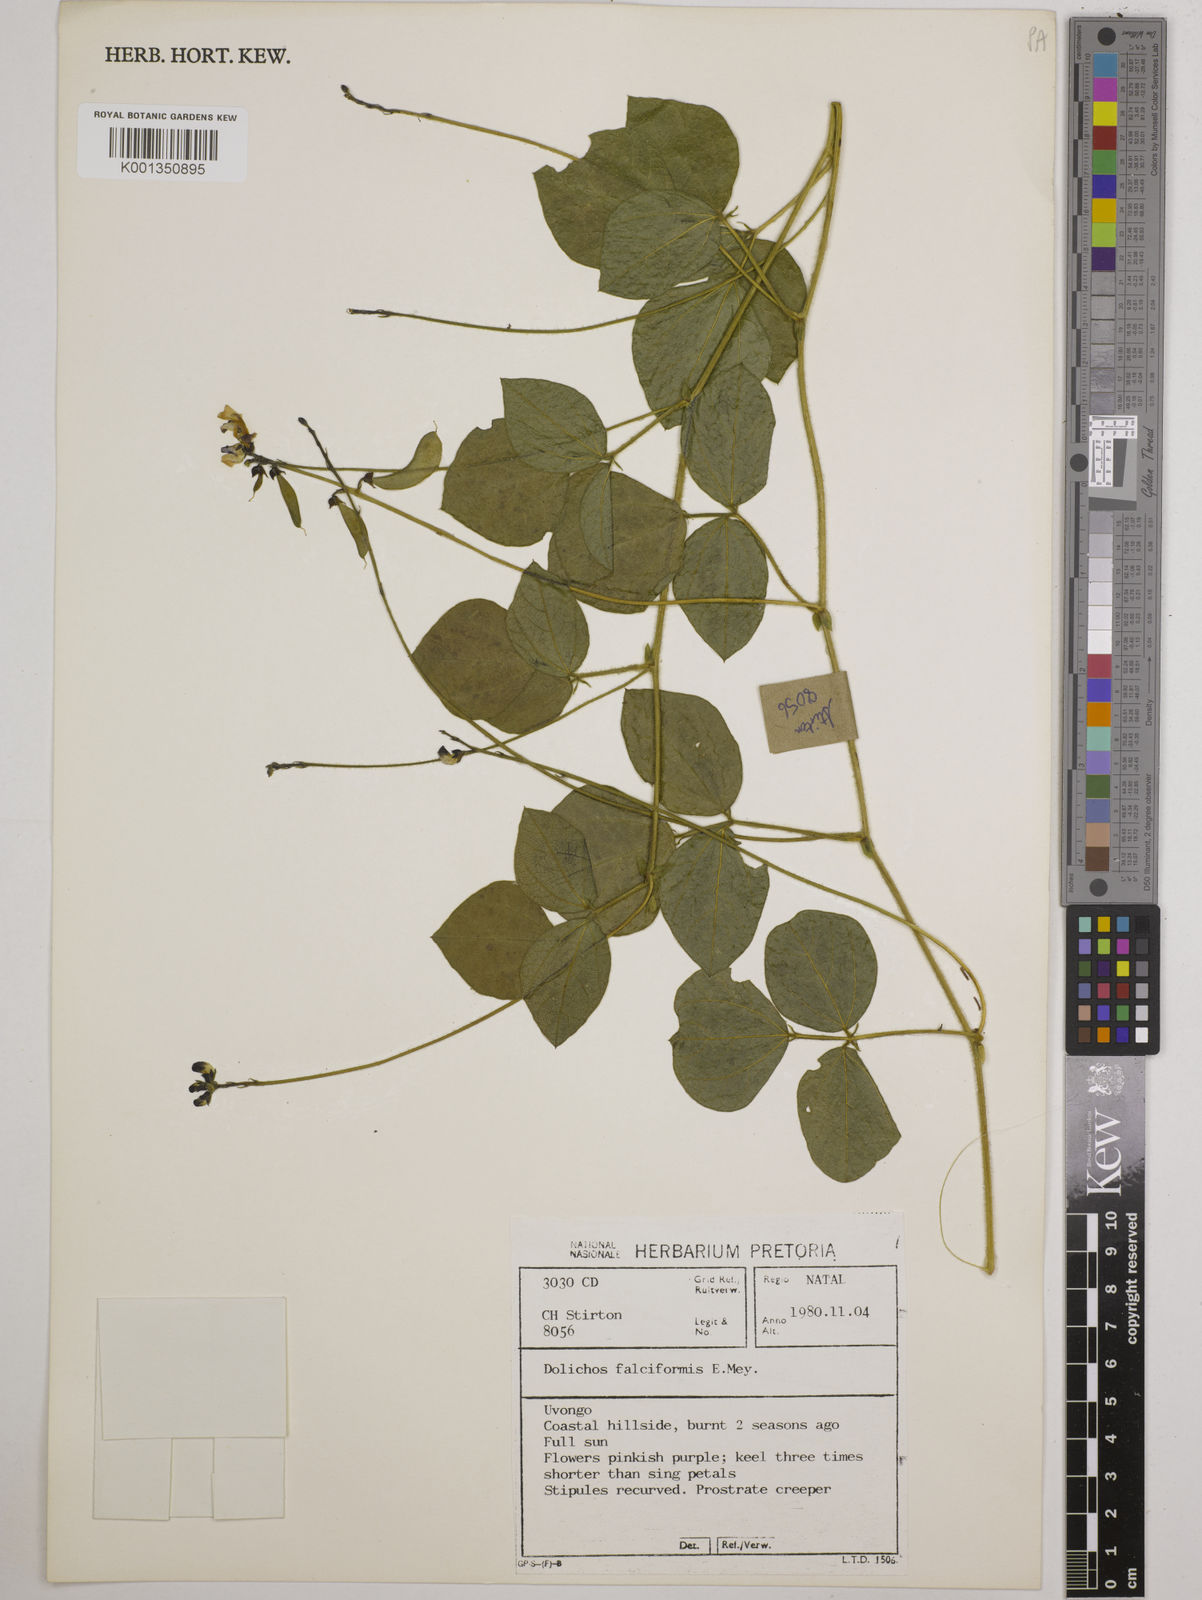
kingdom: Plantae
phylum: Tracheophyta
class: Magnoliopsida
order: Fabales
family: Fabaceae
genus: Dolichos
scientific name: Dolichos falciformis
